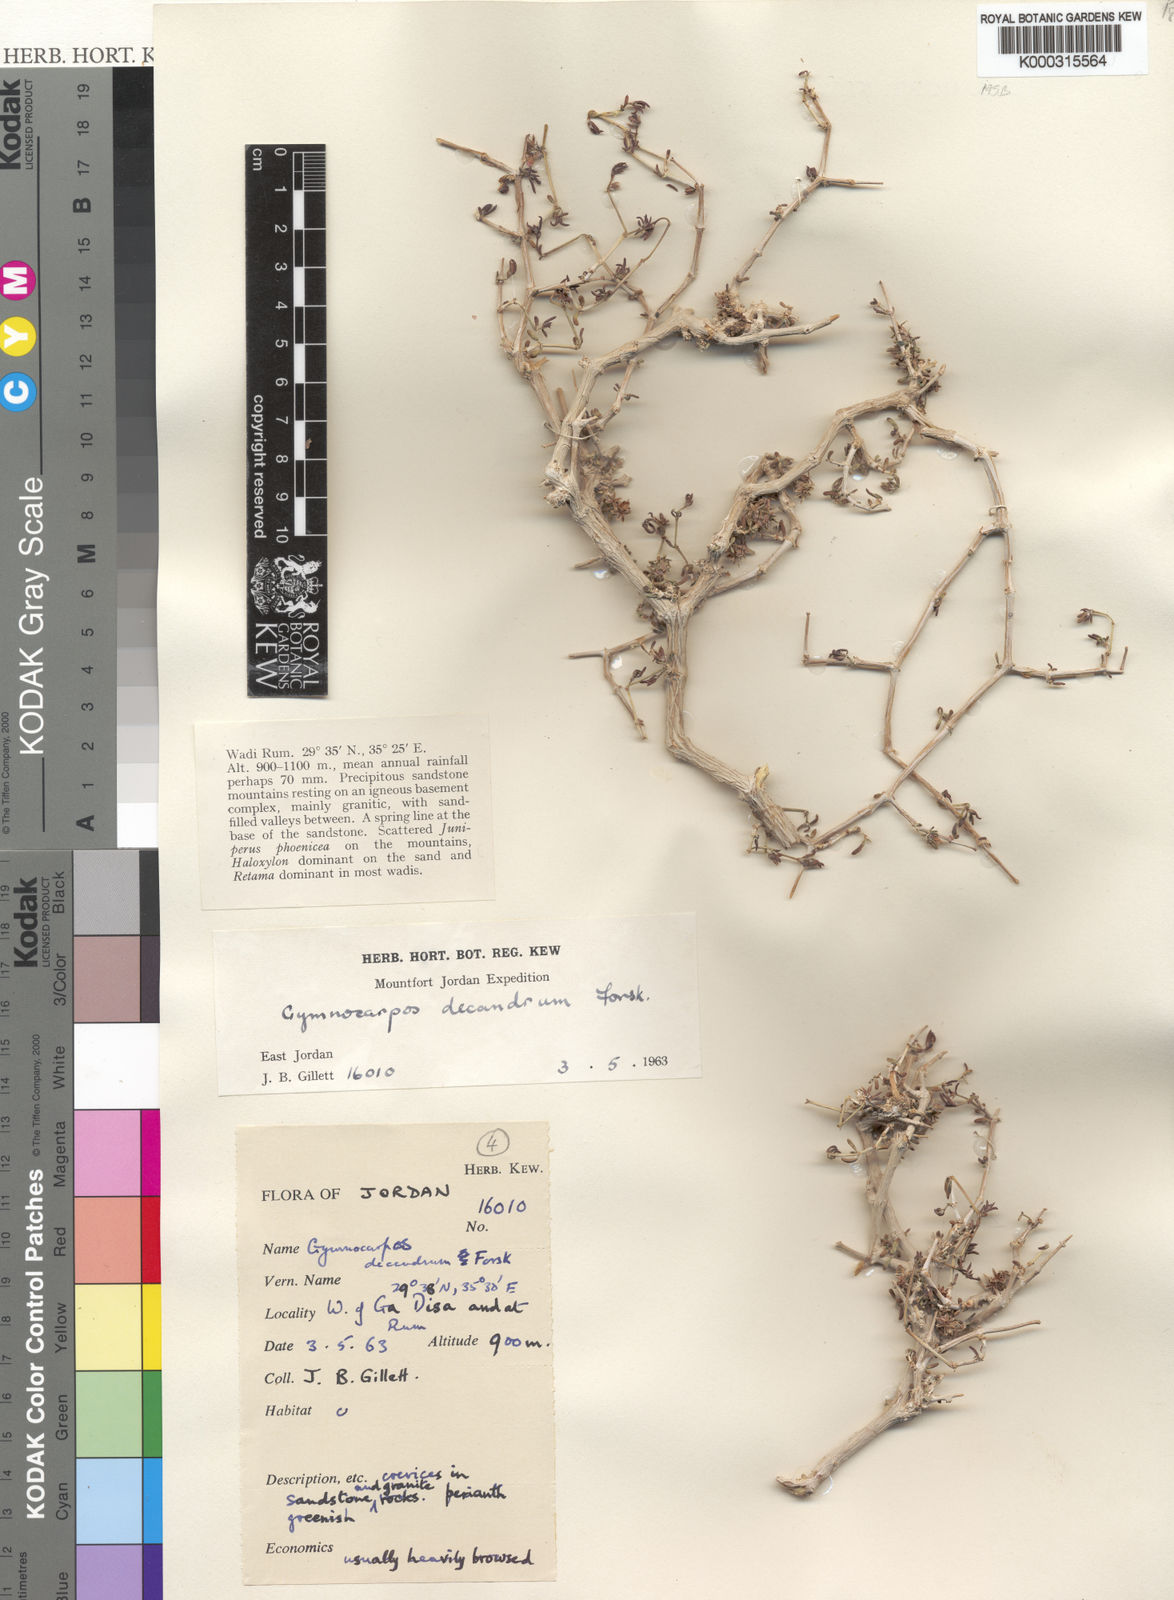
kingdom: Plantae
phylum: Tracheophyta
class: Magnoliopsida
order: Caryophyllales
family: Caryophyllaceae
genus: Gymnocarpos
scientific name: Gymnocarpos
